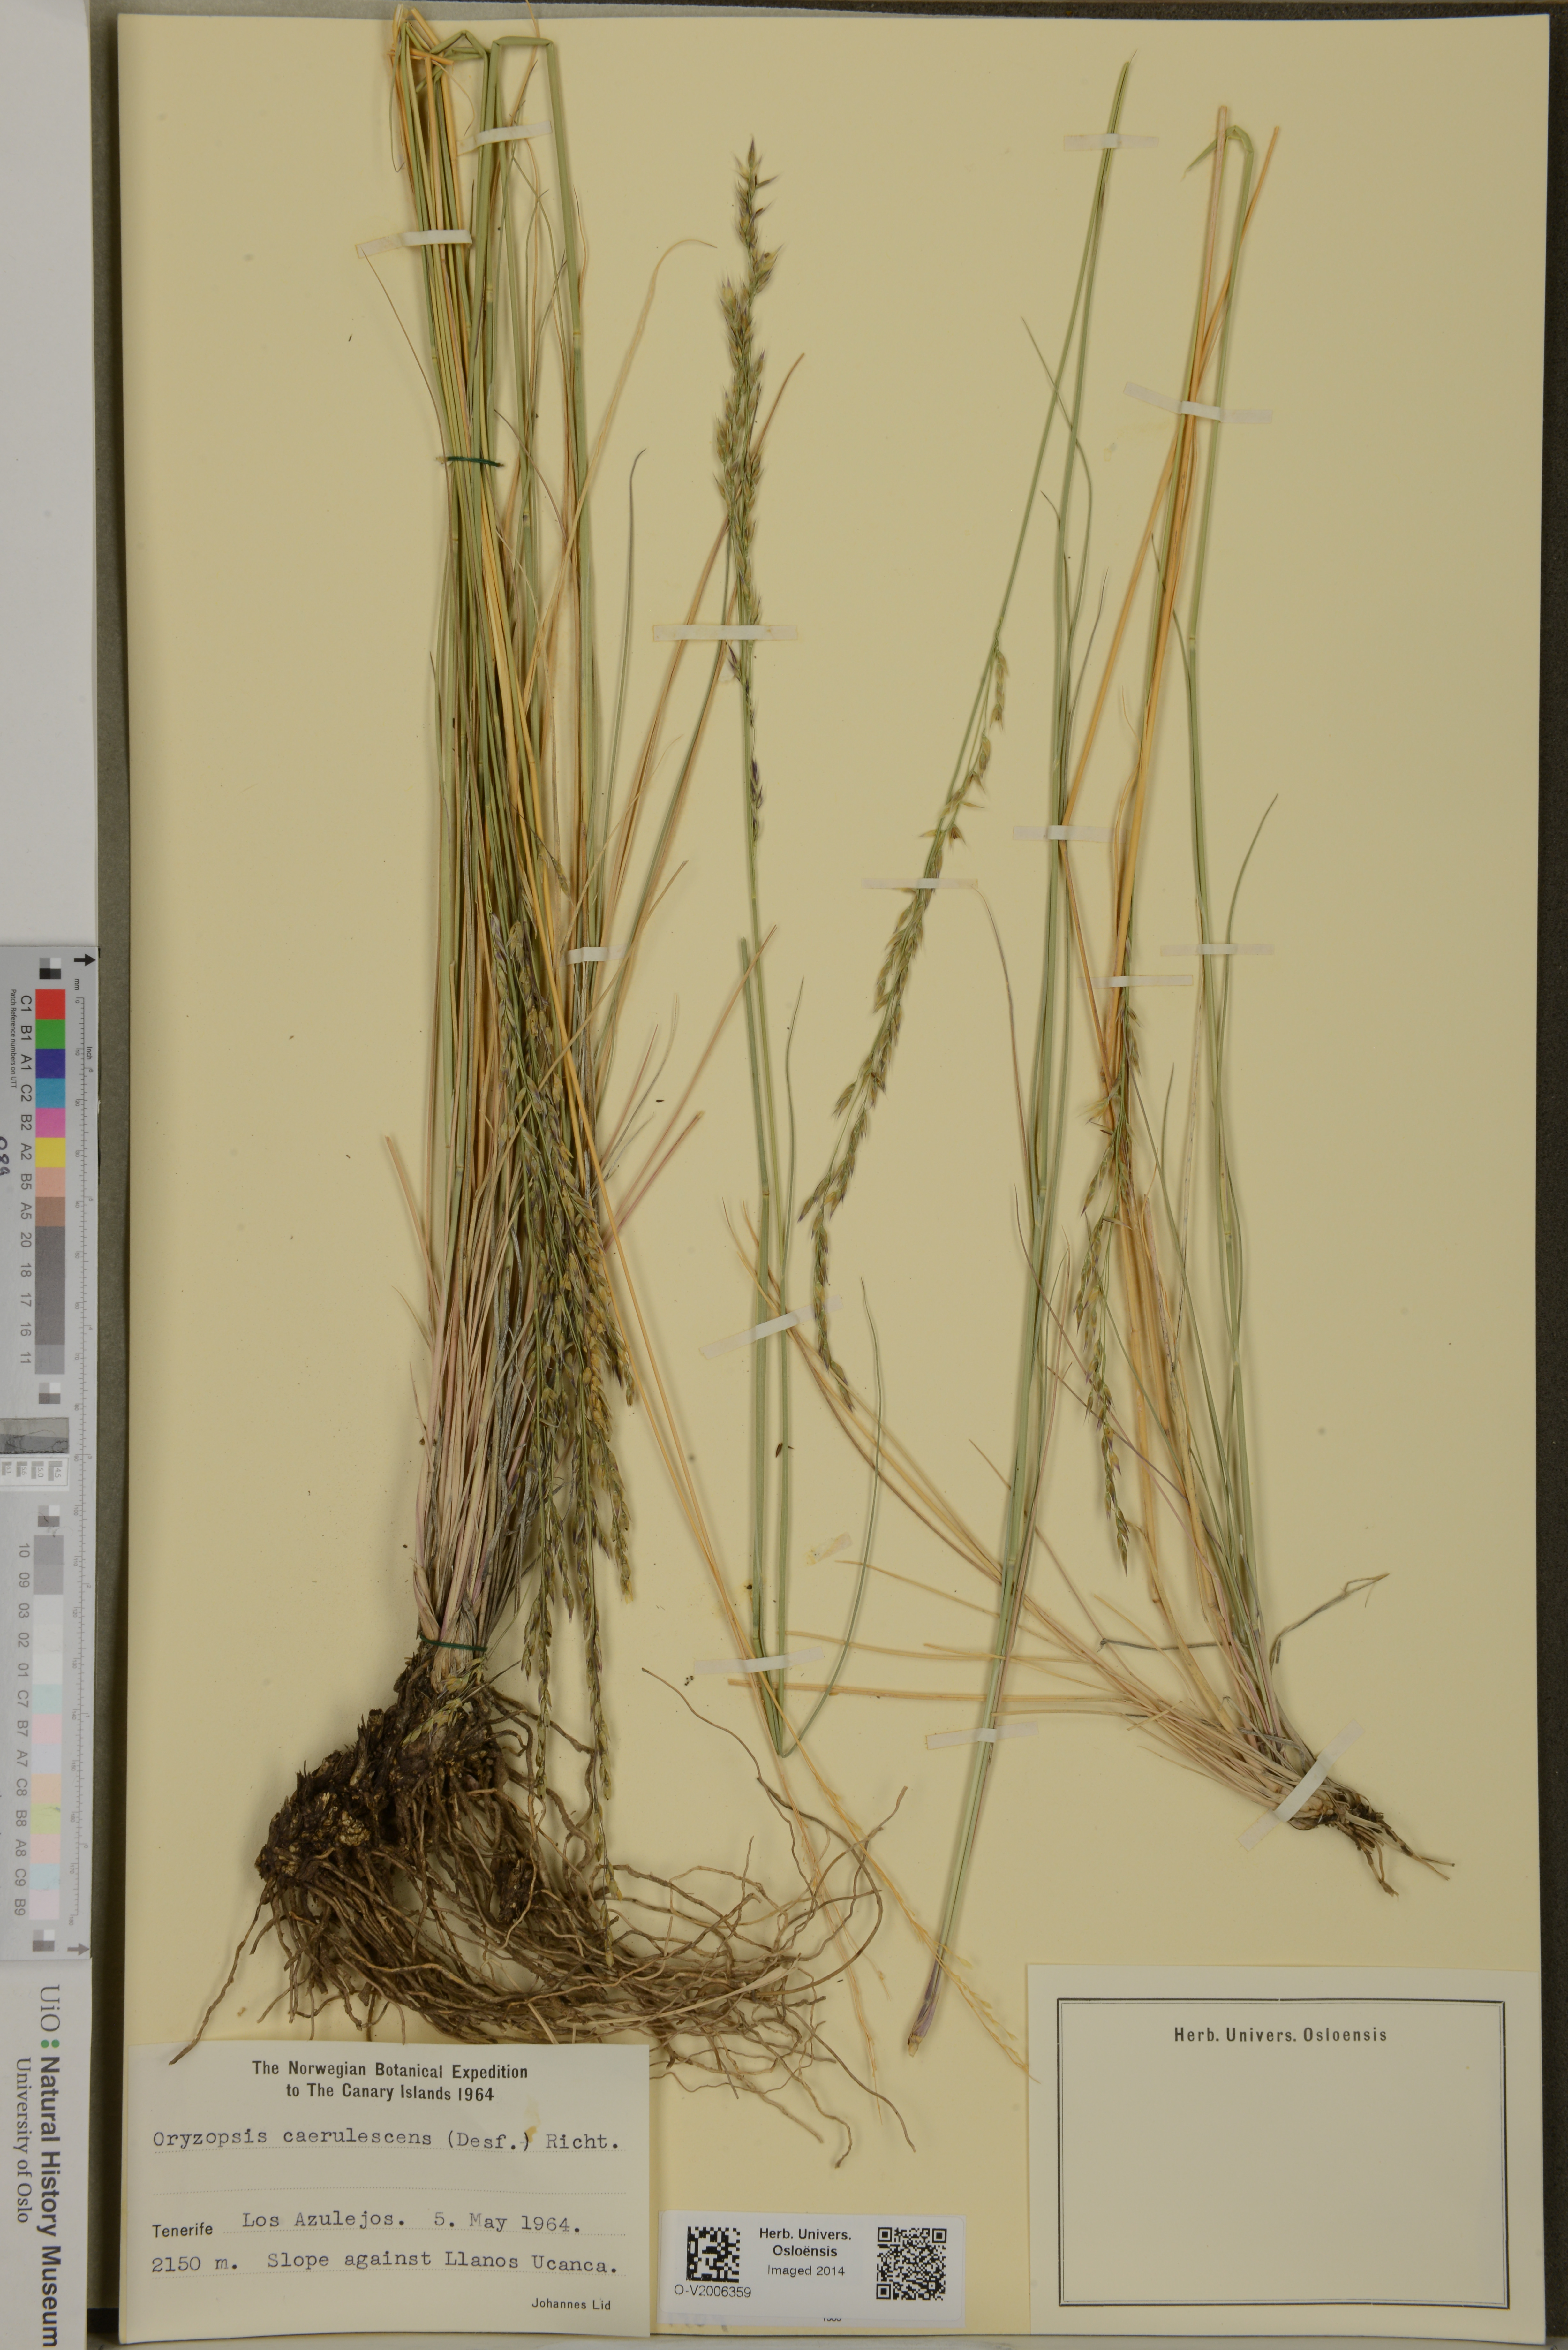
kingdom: Plantae
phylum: Tracheophyta
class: Liliopsida
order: Poales
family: Poaceae
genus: Piptatherum
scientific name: Piptatherum caerulescens
